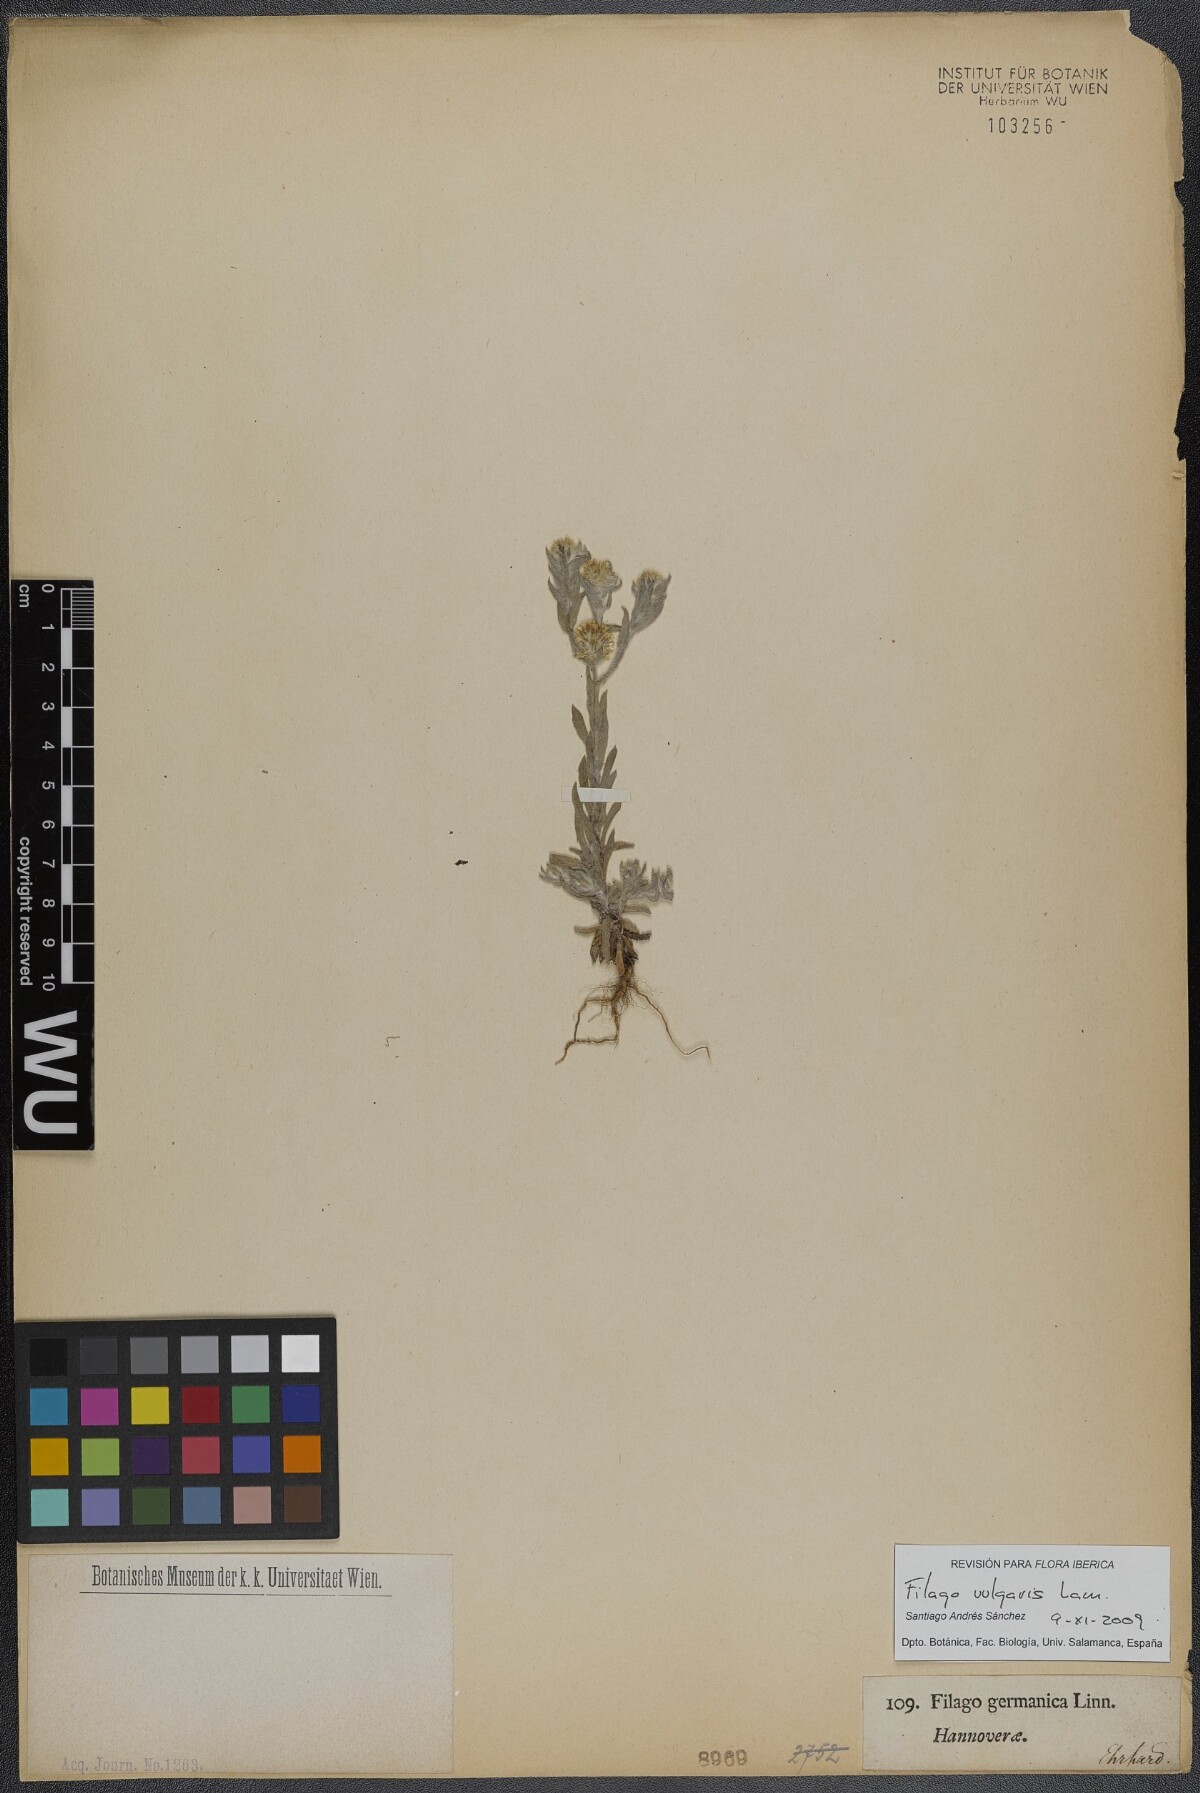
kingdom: Plantae
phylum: Tracheophyta
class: Magnoliopsida
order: Asterales
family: Asteraceae
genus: Filago
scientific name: Filago germanica
